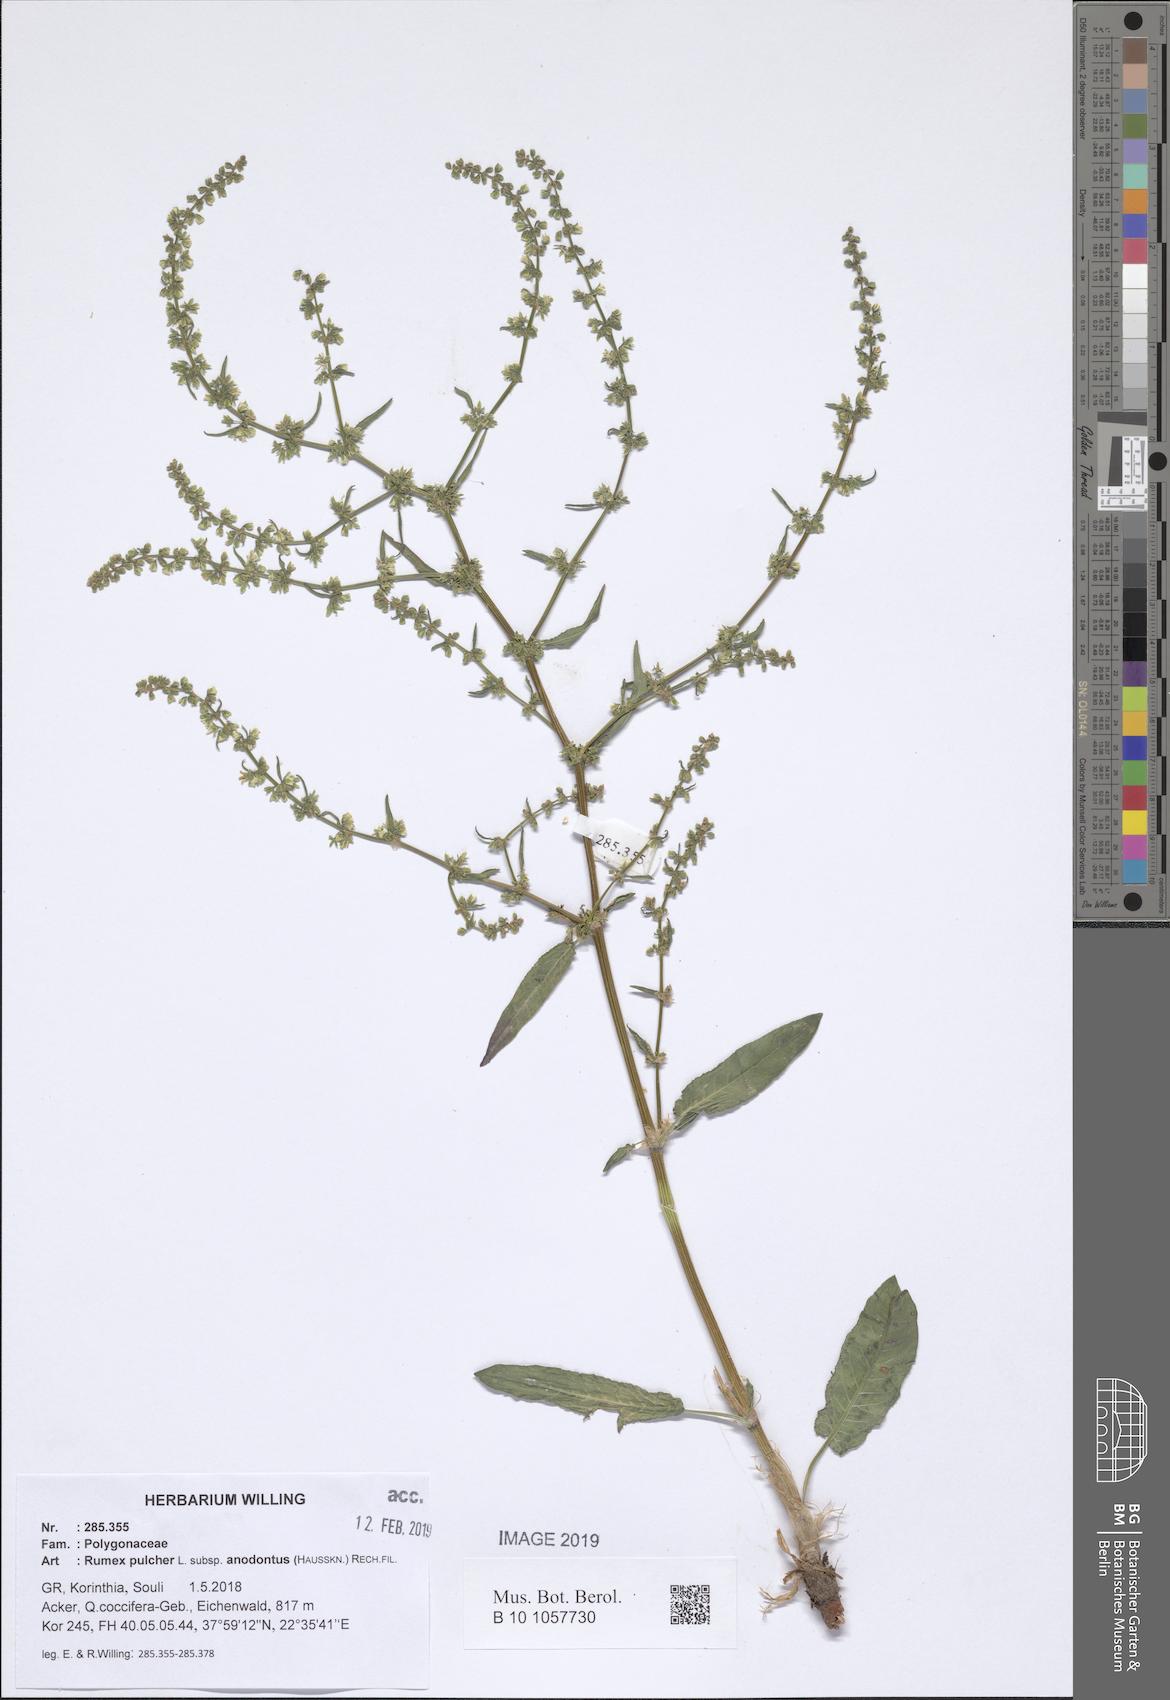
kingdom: Plantae
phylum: Tracheophyta
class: Magnoliopsida
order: Caryophyllales
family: Polygonaceae
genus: Rumex
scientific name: Rumex pulcher
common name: Fiddle dock
